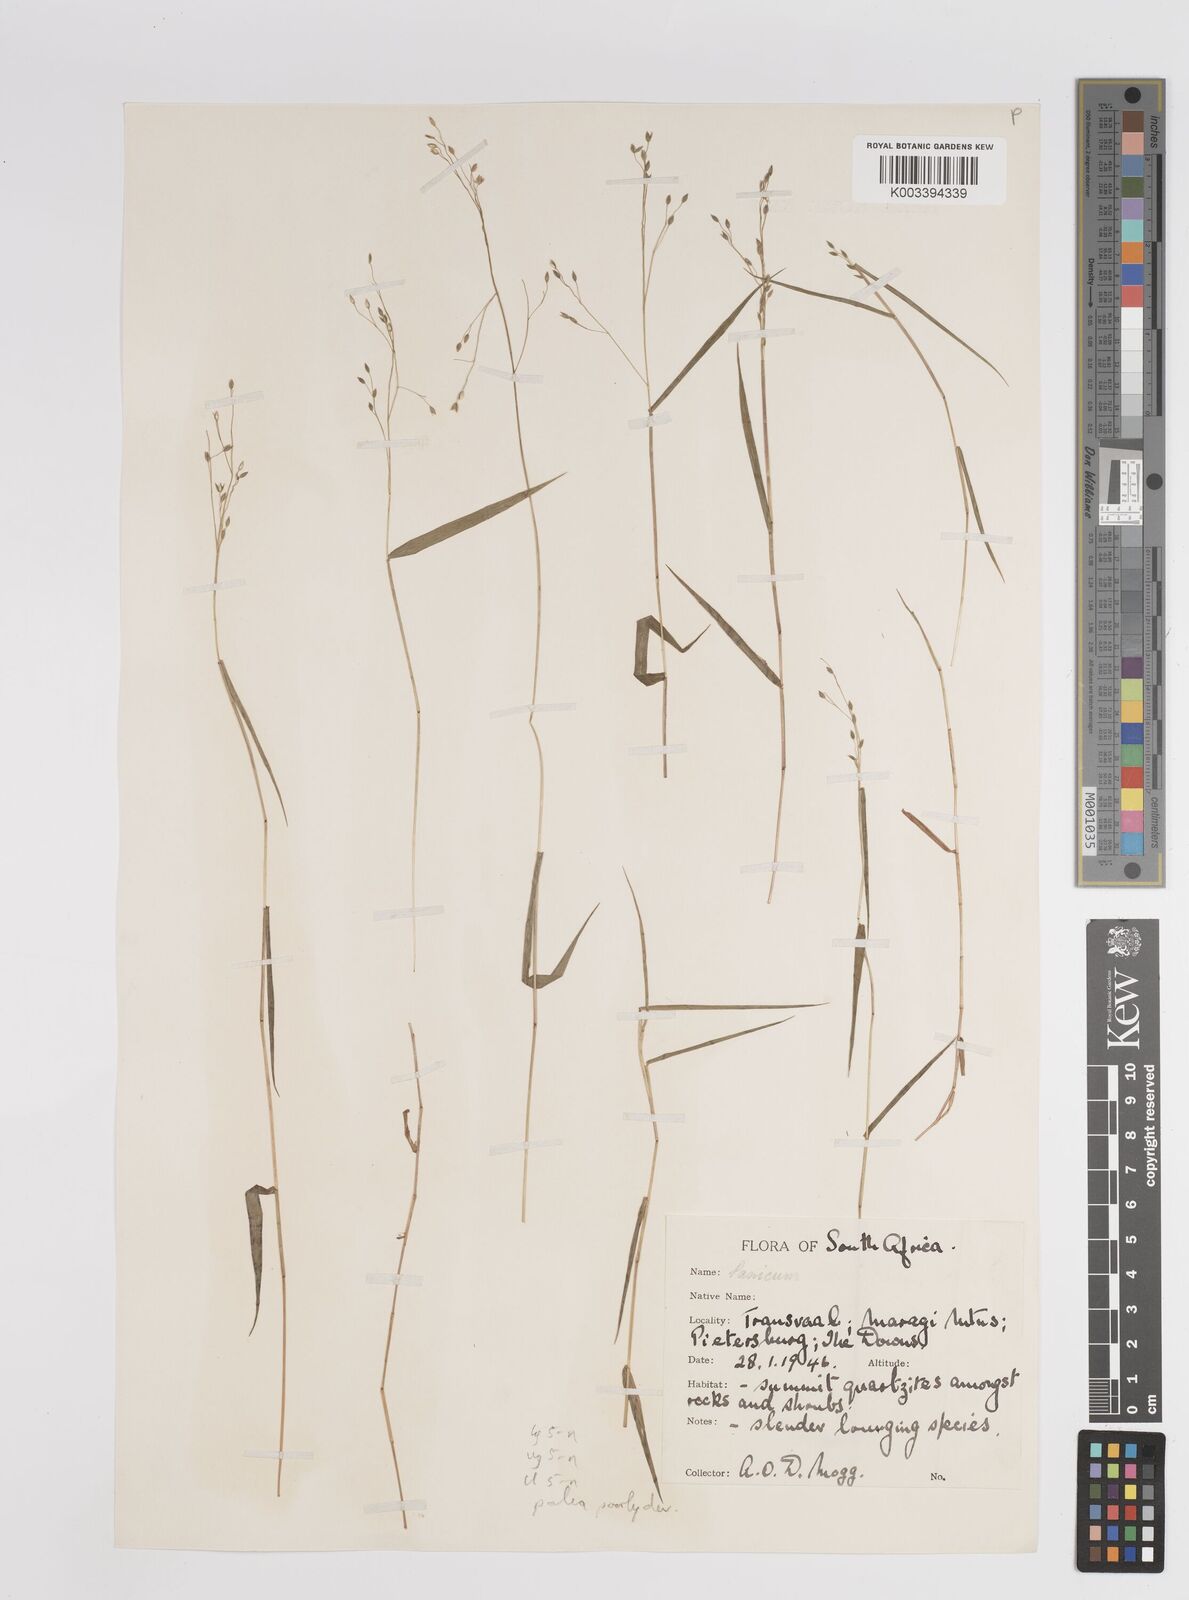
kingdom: Plantae
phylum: Tracheophyta
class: Liliopsida
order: Poales
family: Poaceae
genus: Panicum
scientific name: Panicum aequinerve
